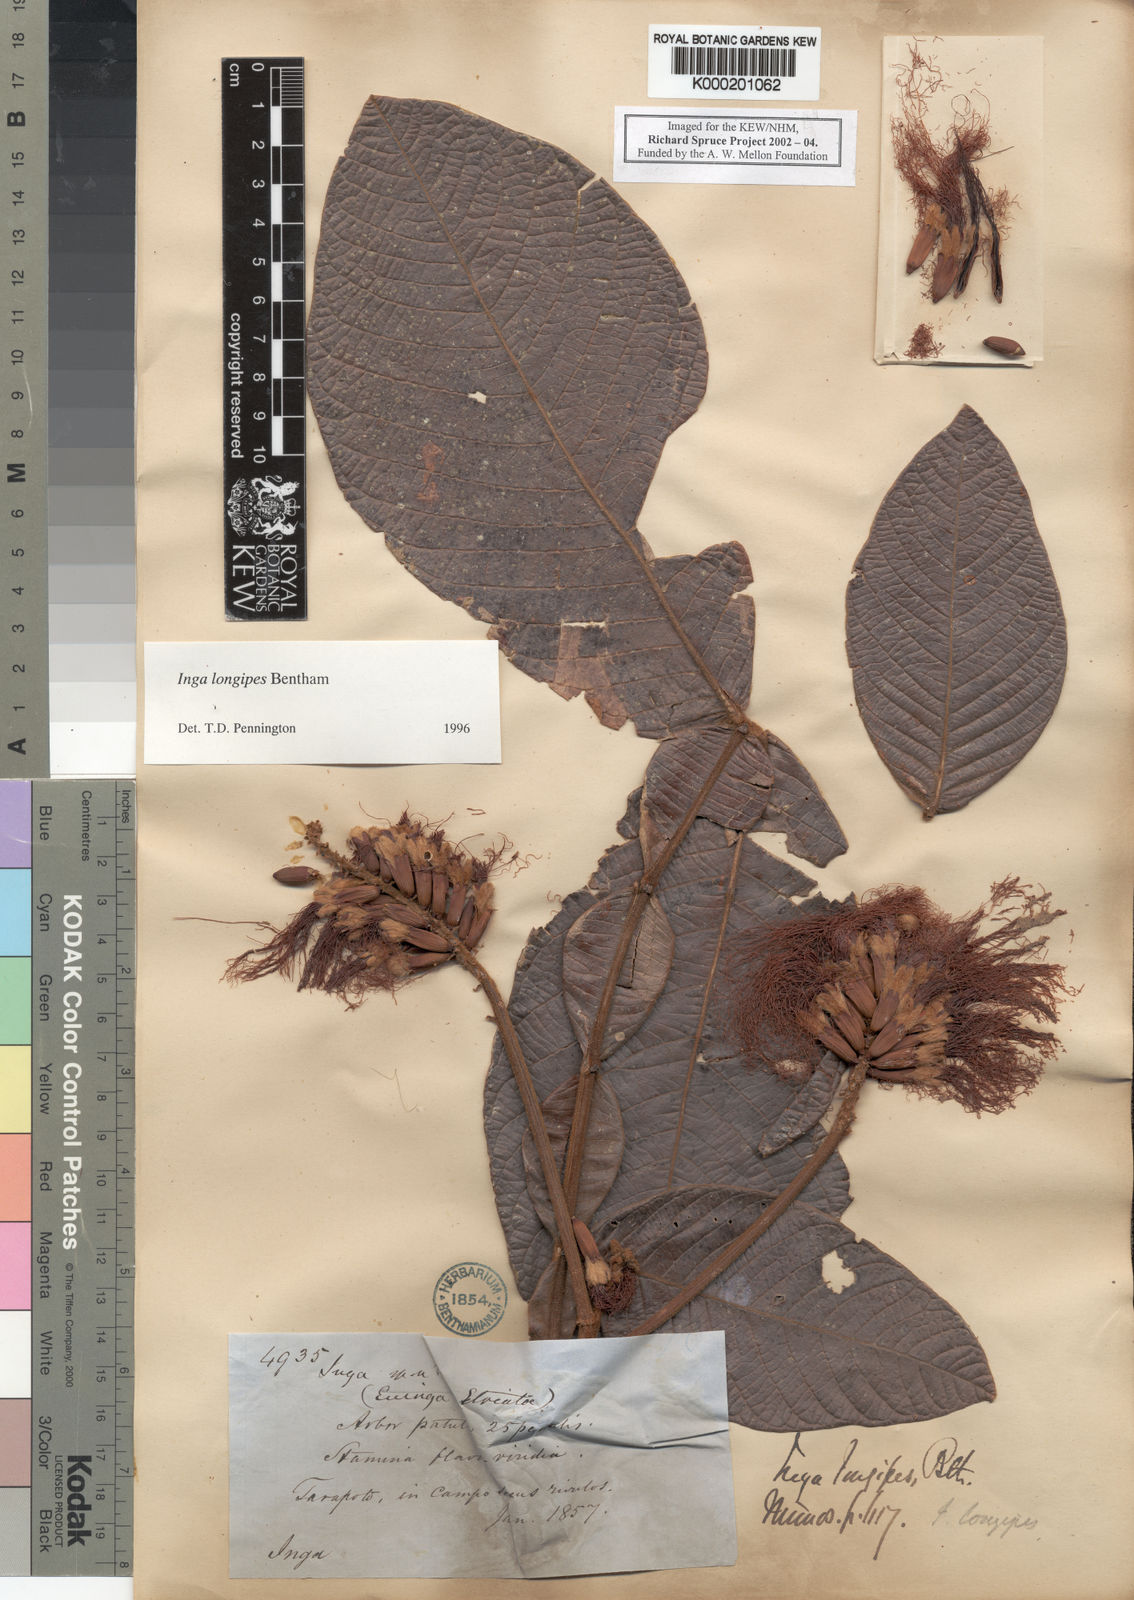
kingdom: Plantae
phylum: Tracheophyta
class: Magnoliopsida
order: Fabales
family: Fabaceae
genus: Inga
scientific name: Inga longipes
